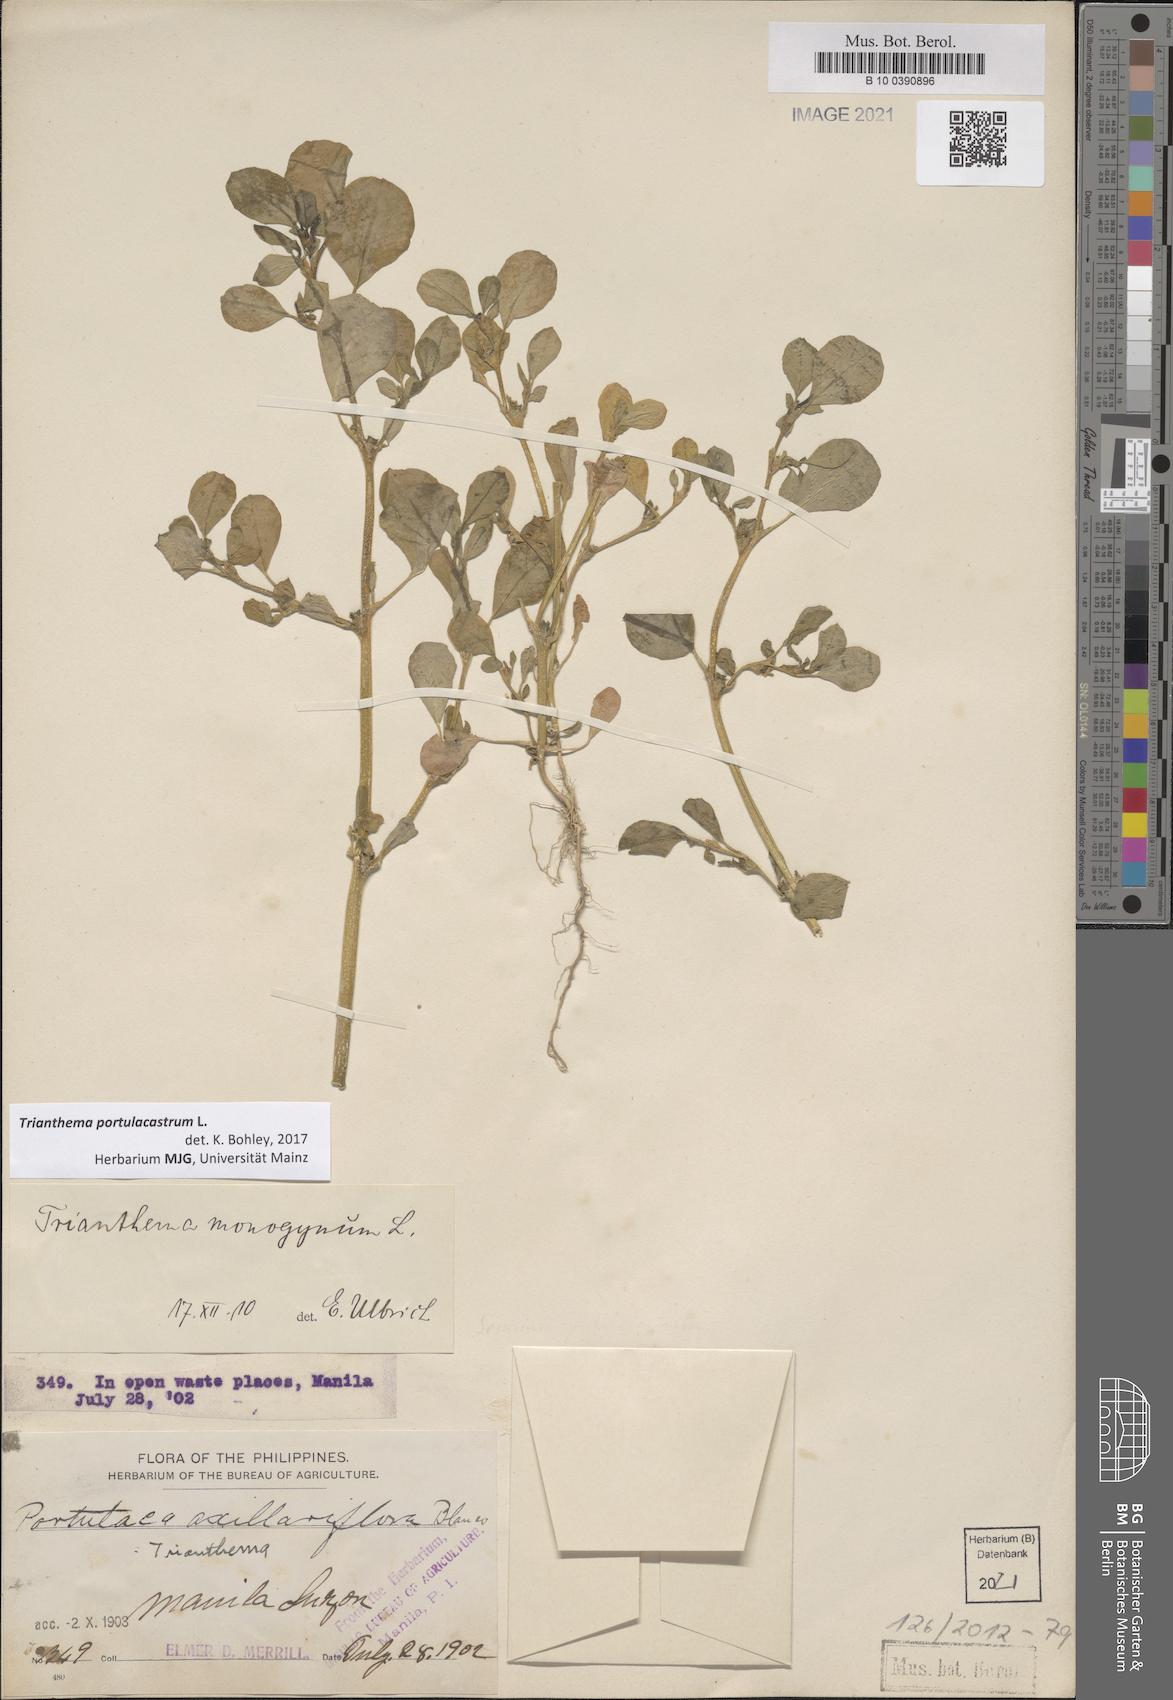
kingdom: Plantae
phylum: Tracheophyta
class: Magnoliopsida
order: Caryophyllales
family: Aizoaceae
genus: Trianthema
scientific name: Trianthema portulacastrum
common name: Desert horsepurslane
